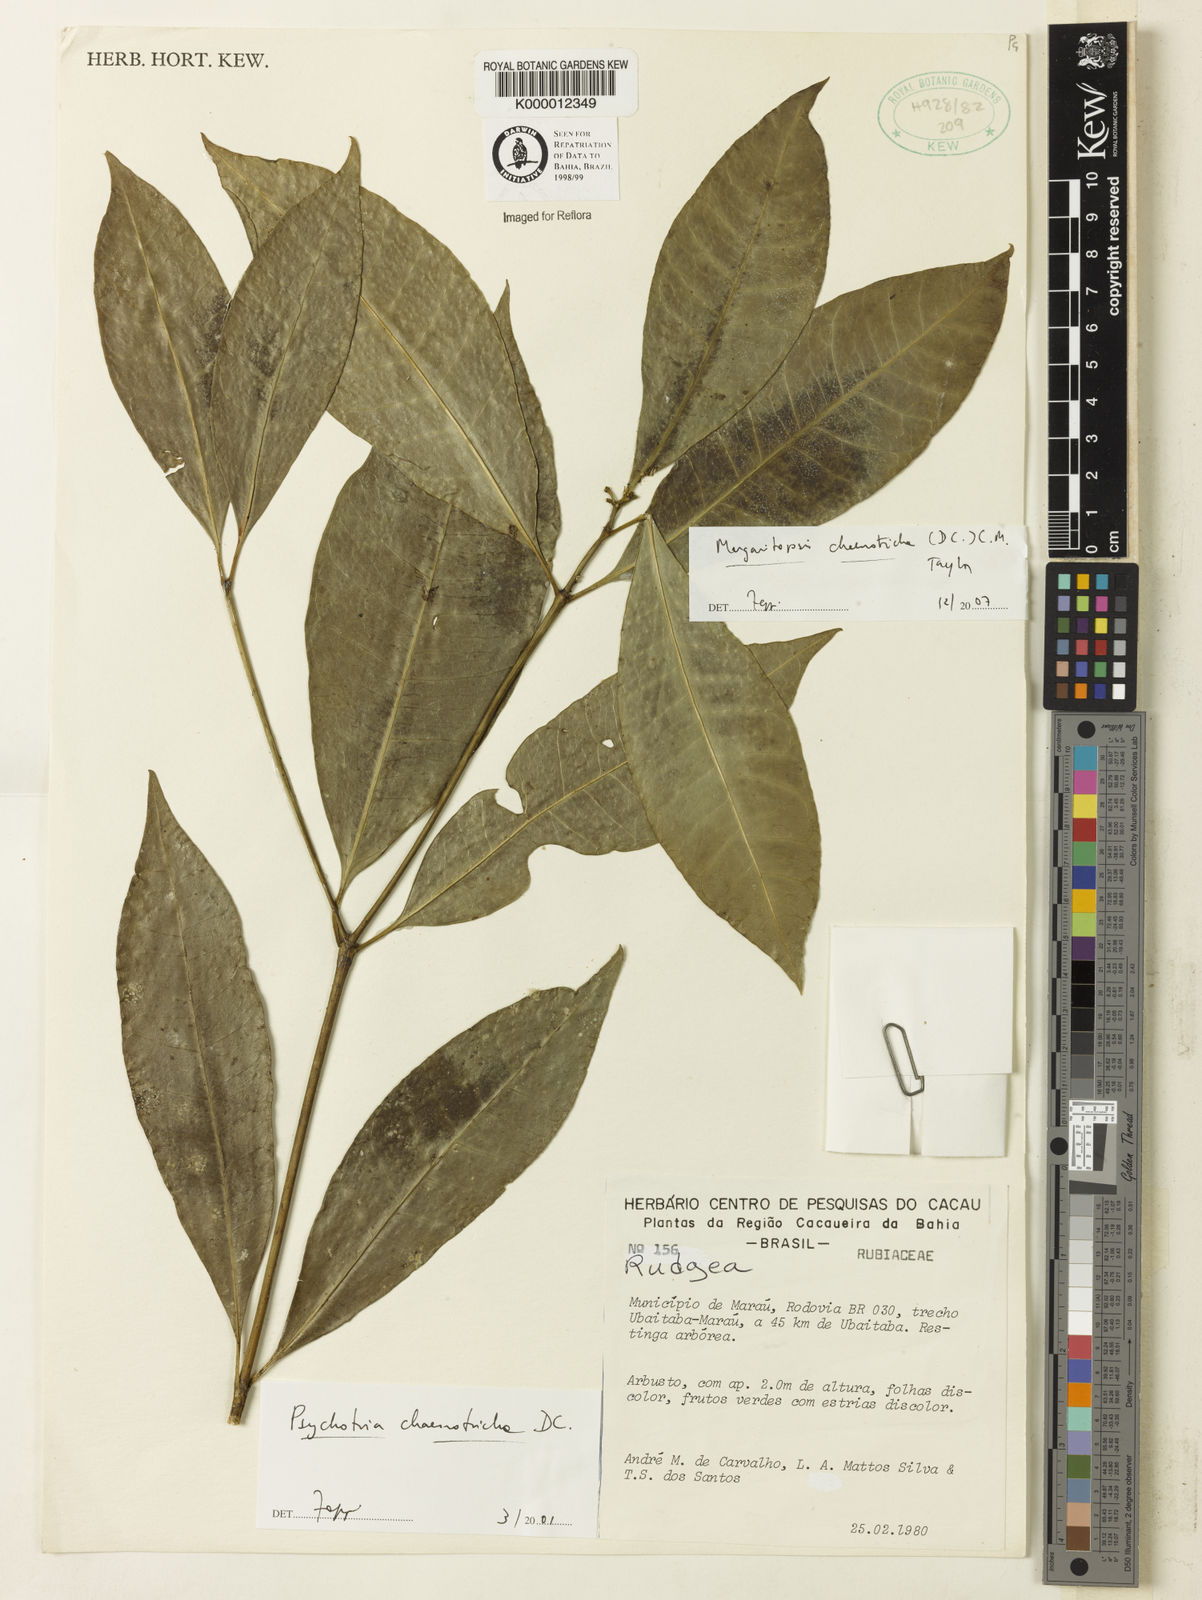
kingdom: Plantae
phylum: Tracheophyta
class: Magnoliopsida
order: Gentianales
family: Rubiaceae
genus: Eumachia
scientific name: Eumachia chaenotricha
